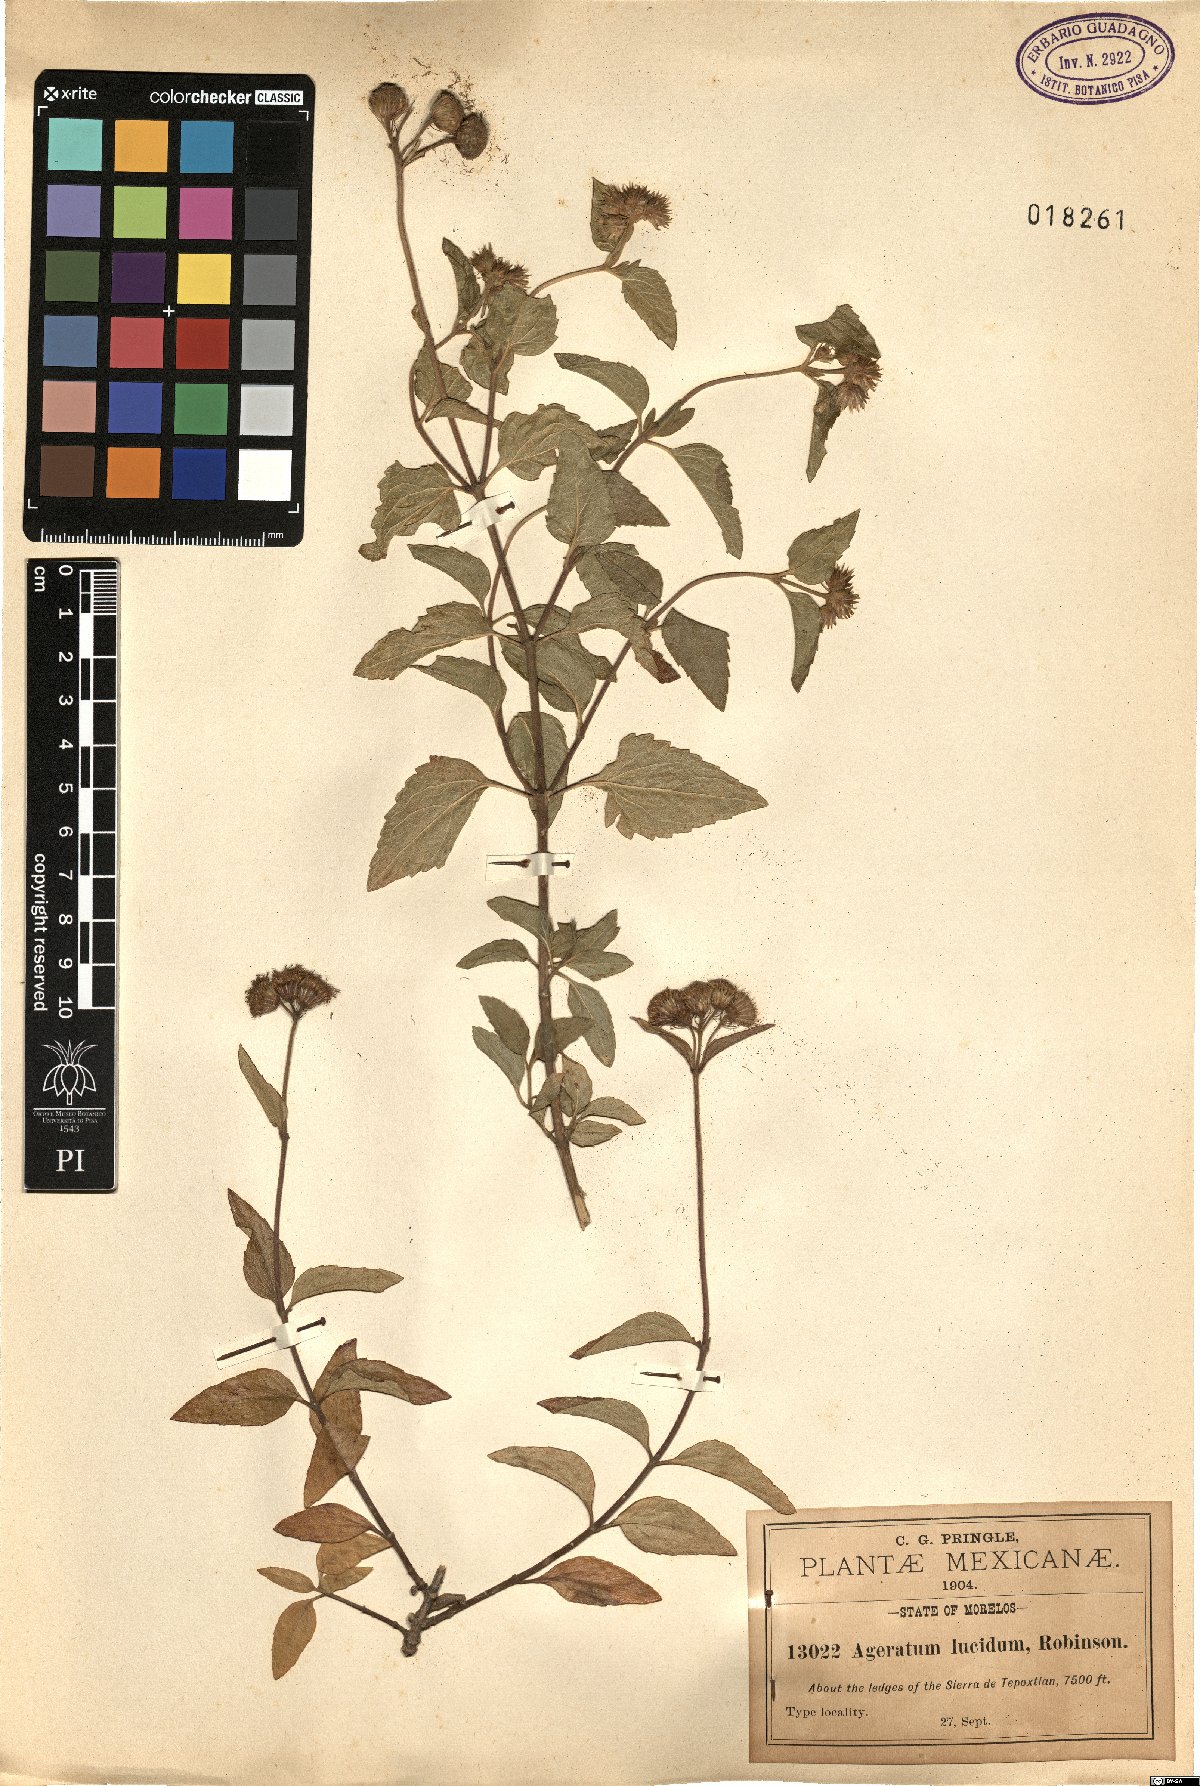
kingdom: Plantae
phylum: Tracheophyta
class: Magnoliopsida
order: Asterales
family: Asteraceae
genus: Ageratum
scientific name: Ageratum corymbosum
